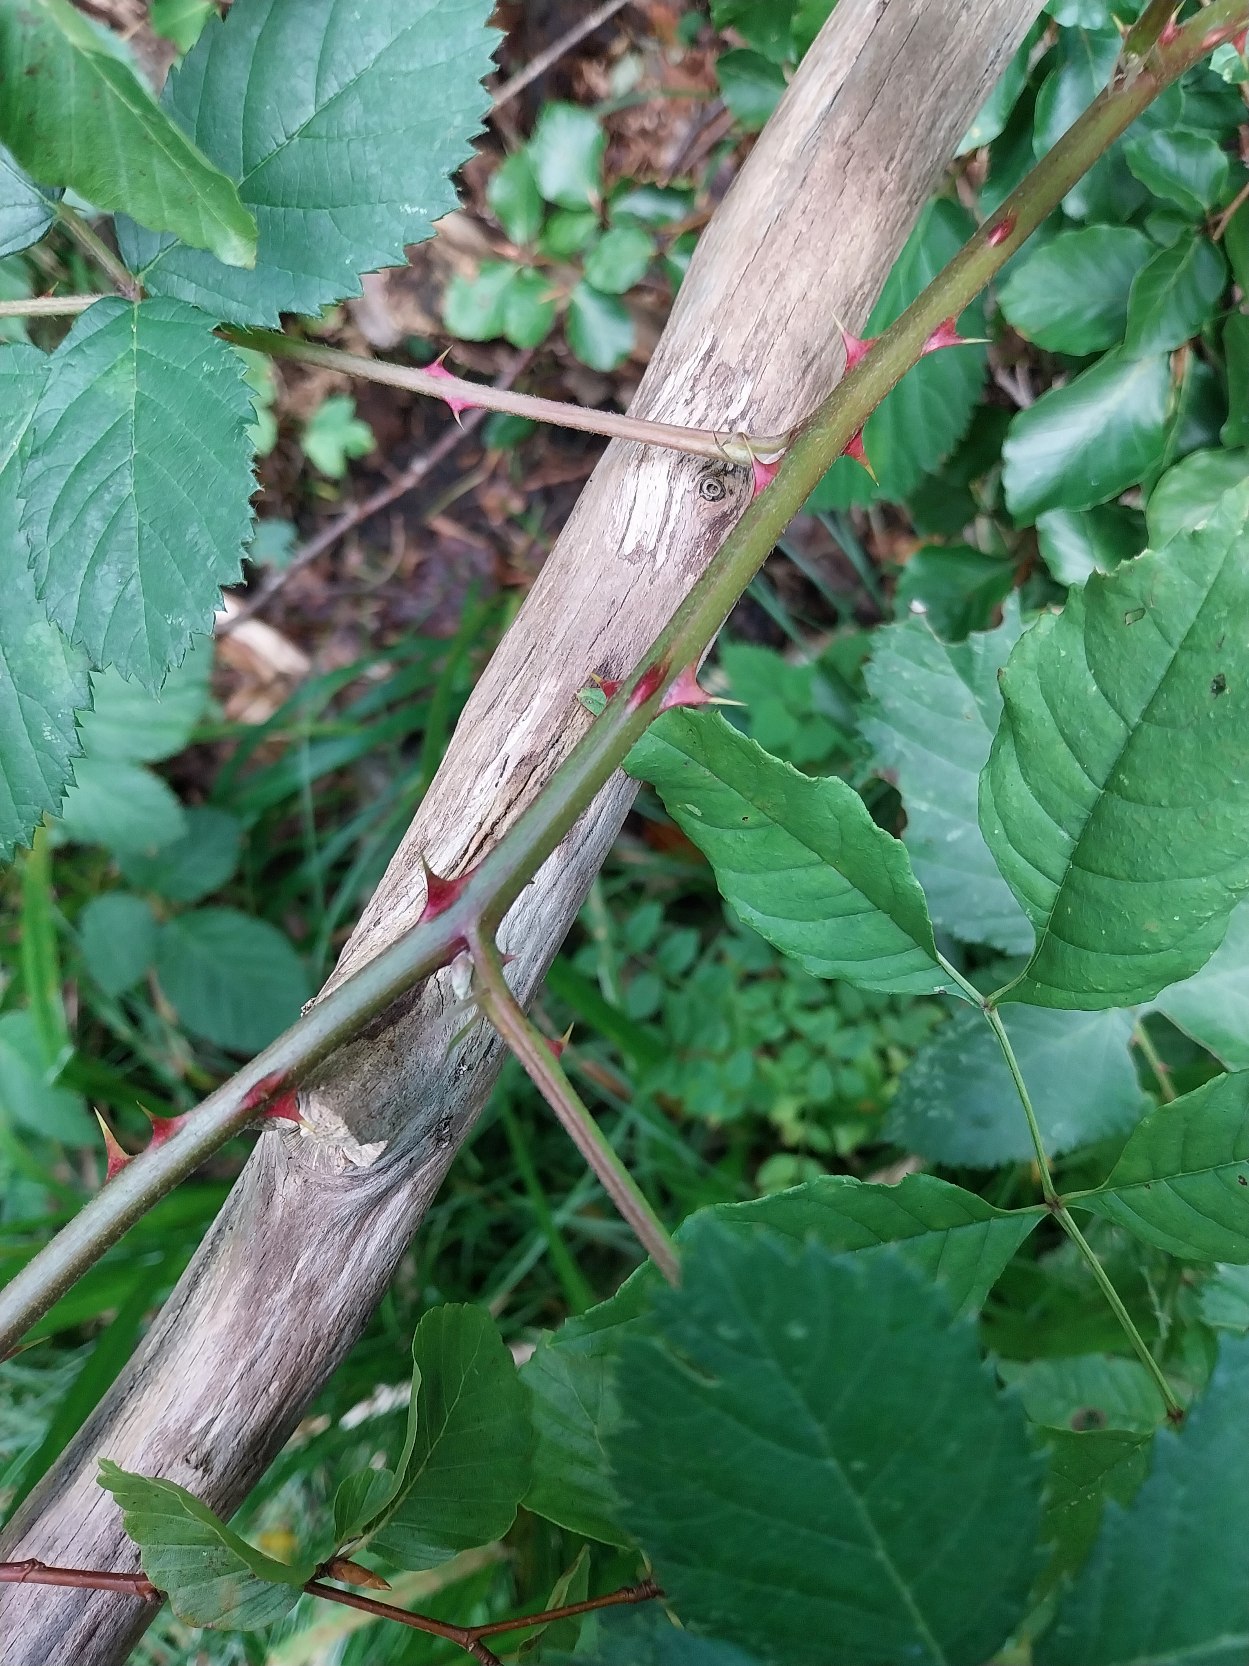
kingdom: Plantae
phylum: Tracheophyta
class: Magnoliopsida
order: Rosales
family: Rosaceae
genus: Rubus
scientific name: Rubus armeniacus
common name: Armensk brombær
